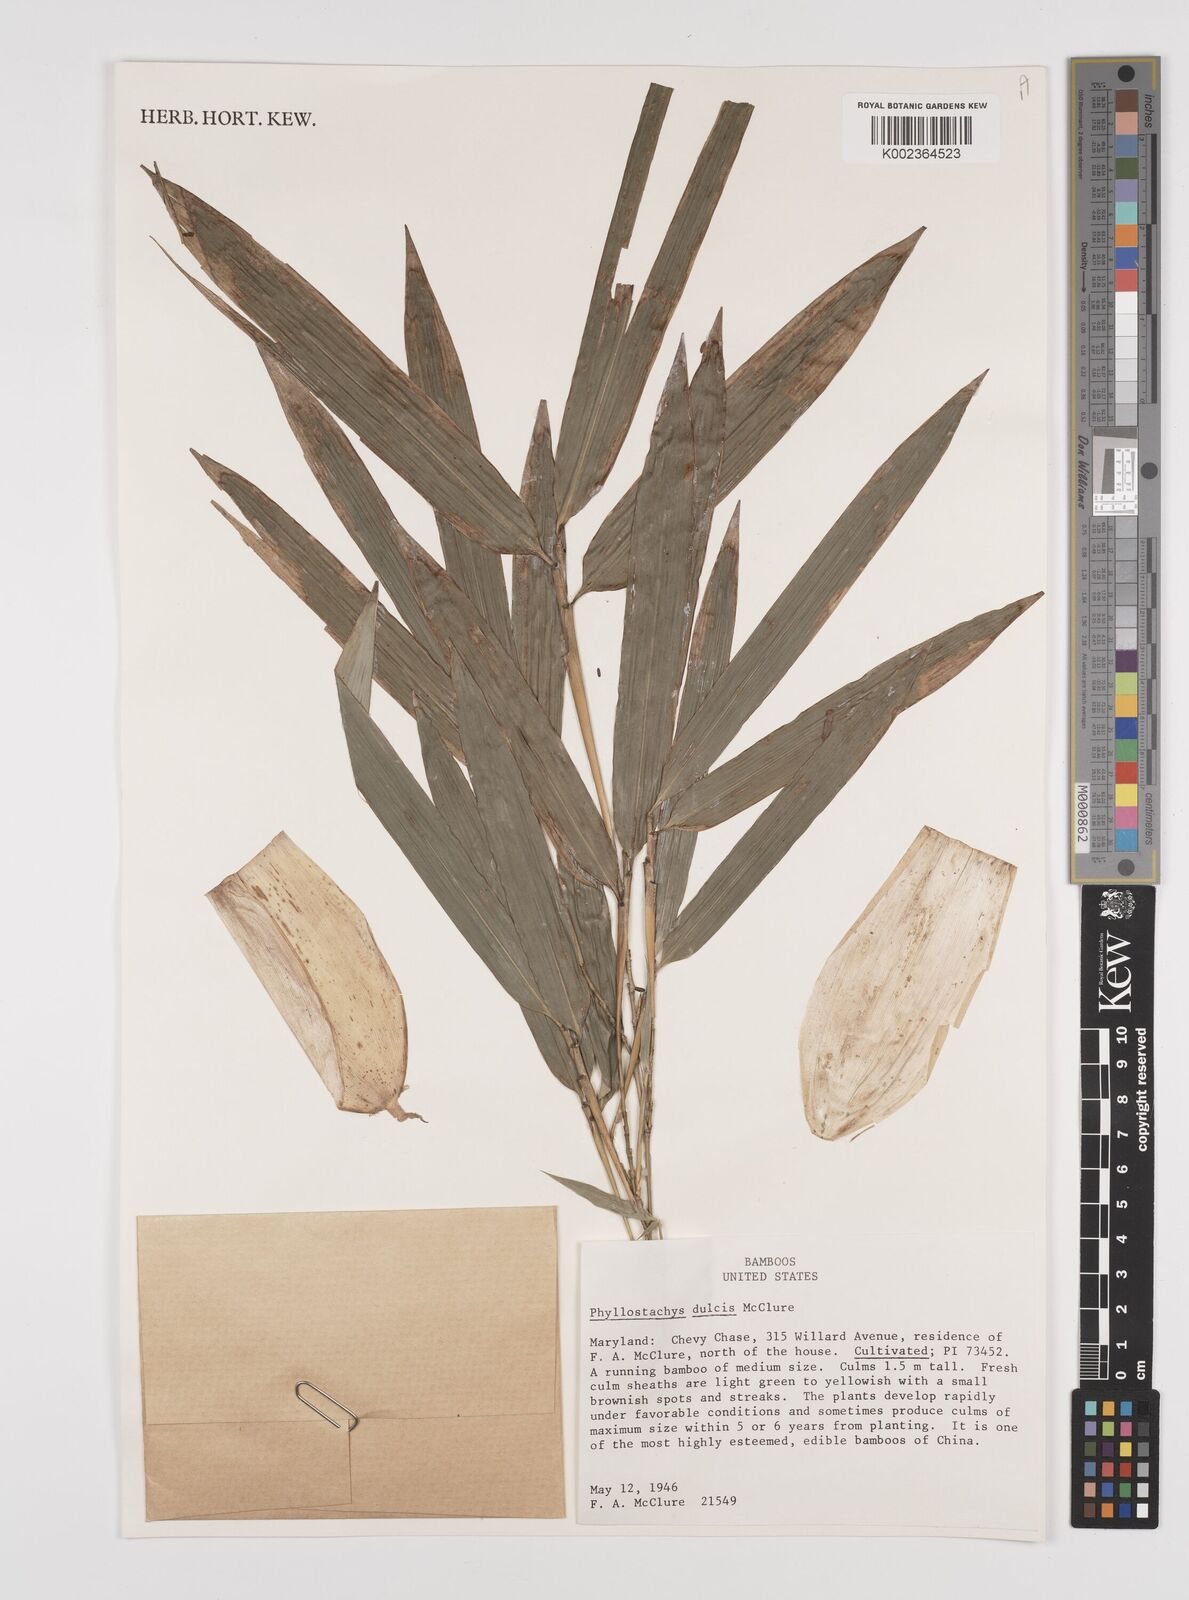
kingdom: Plantae
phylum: Tracheophyta
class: Liliopsida
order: Poales
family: Poaceae
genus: Phyllostachys
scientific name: Phyllostachys dulcis
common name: Sweetshoot bamboo
